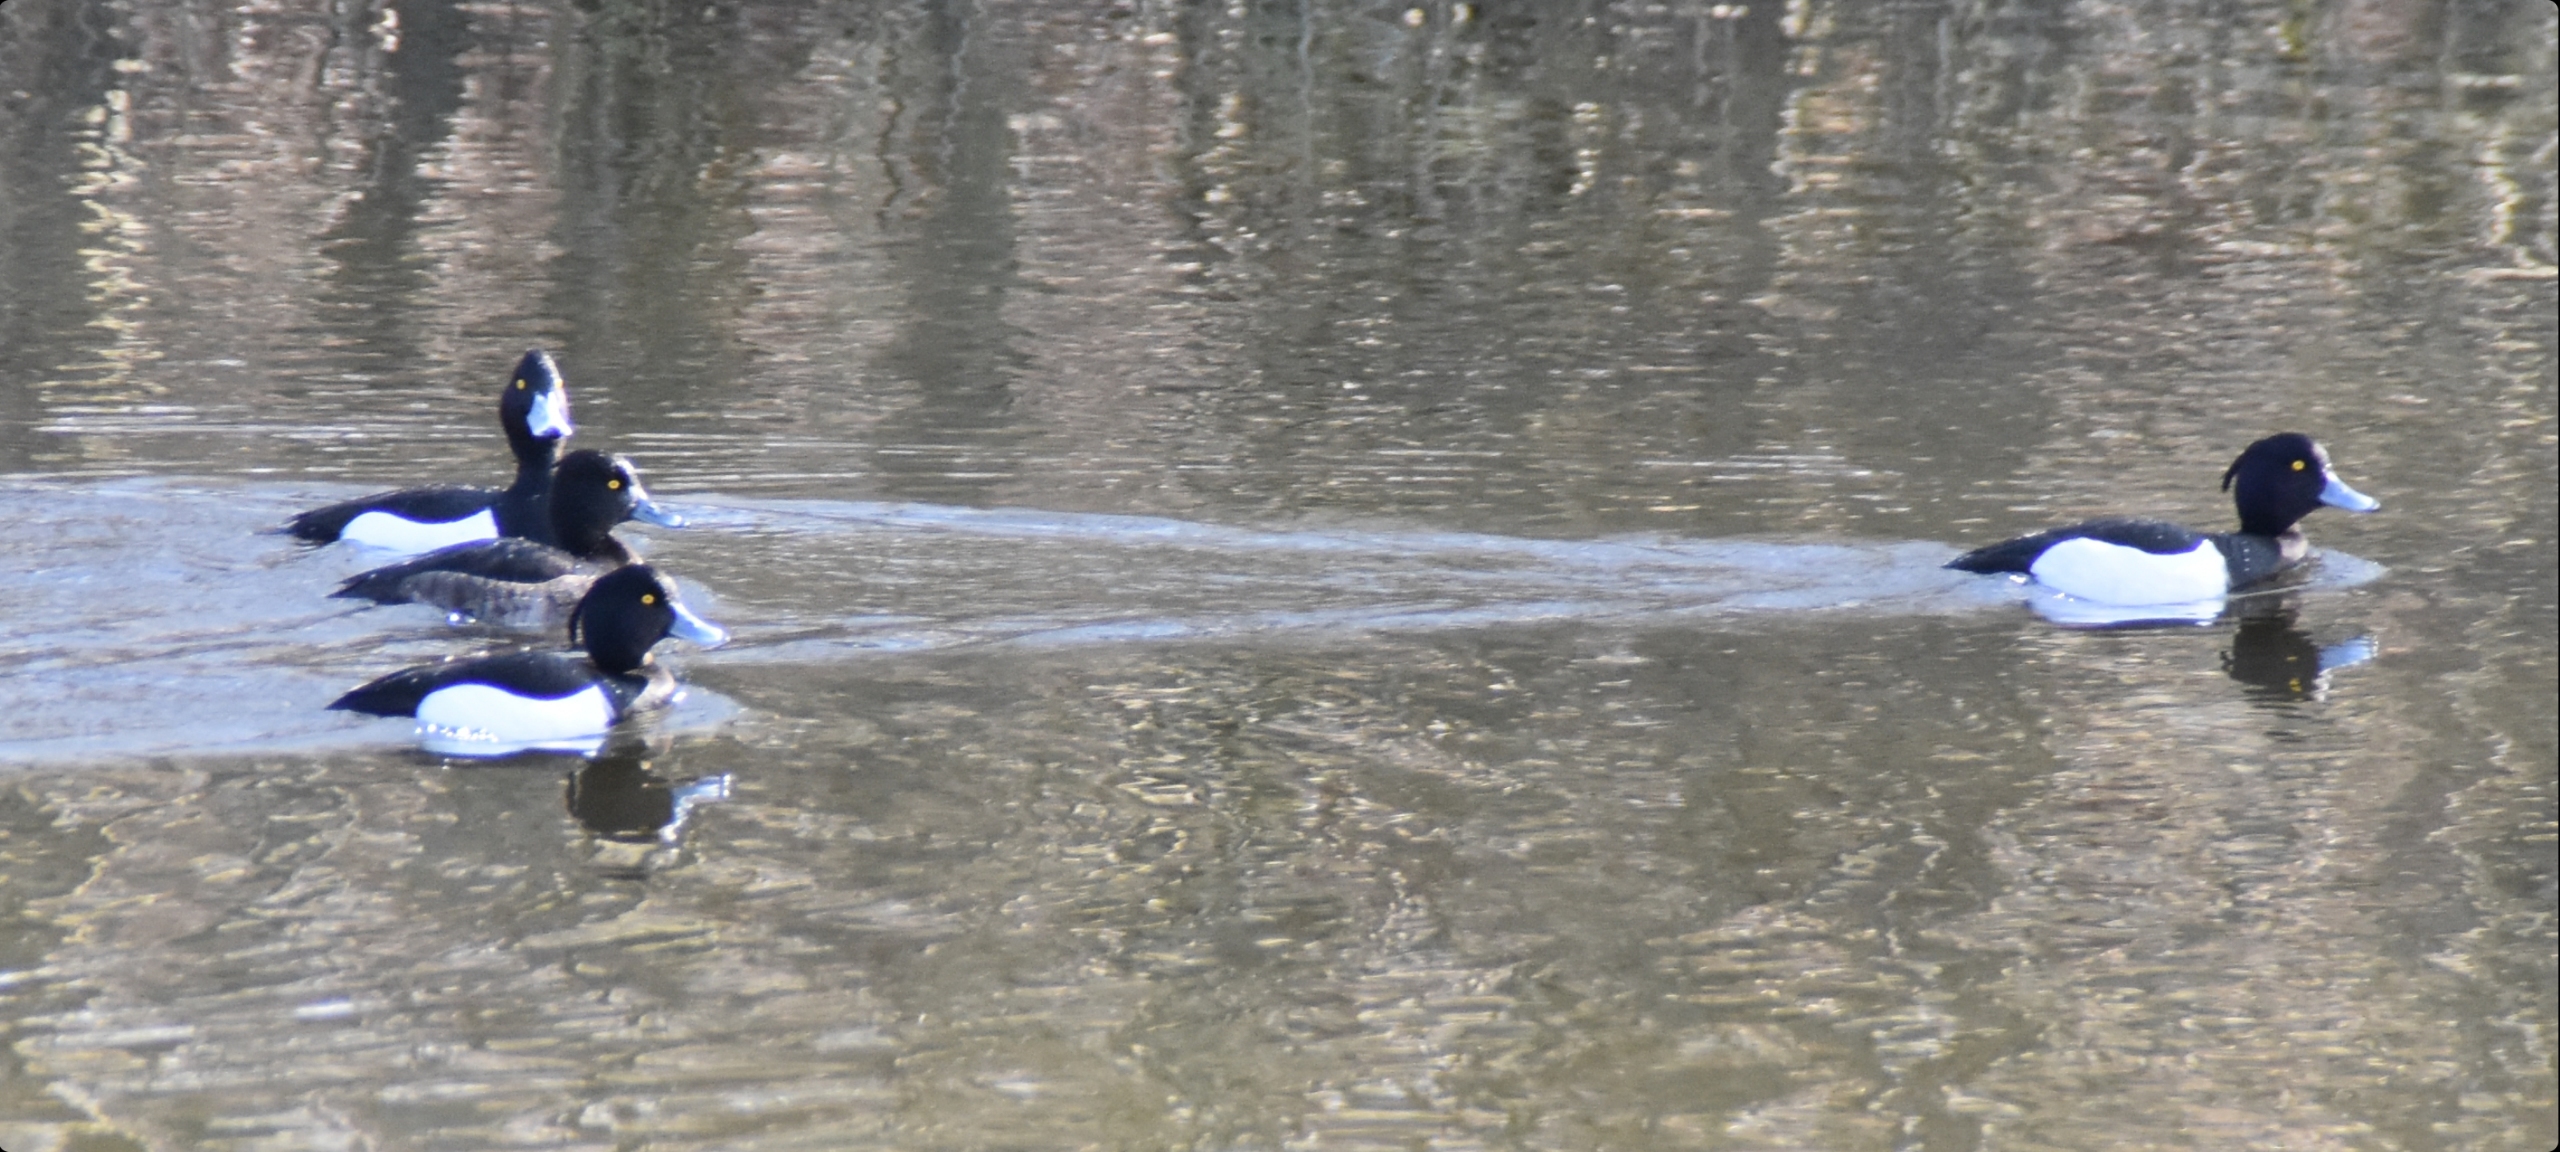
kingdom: Animalia
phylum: Chordata
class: Aves
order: Anseriformes
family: Anatidae
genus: Aythya
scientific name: Aythya fuligula
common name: Troldand
